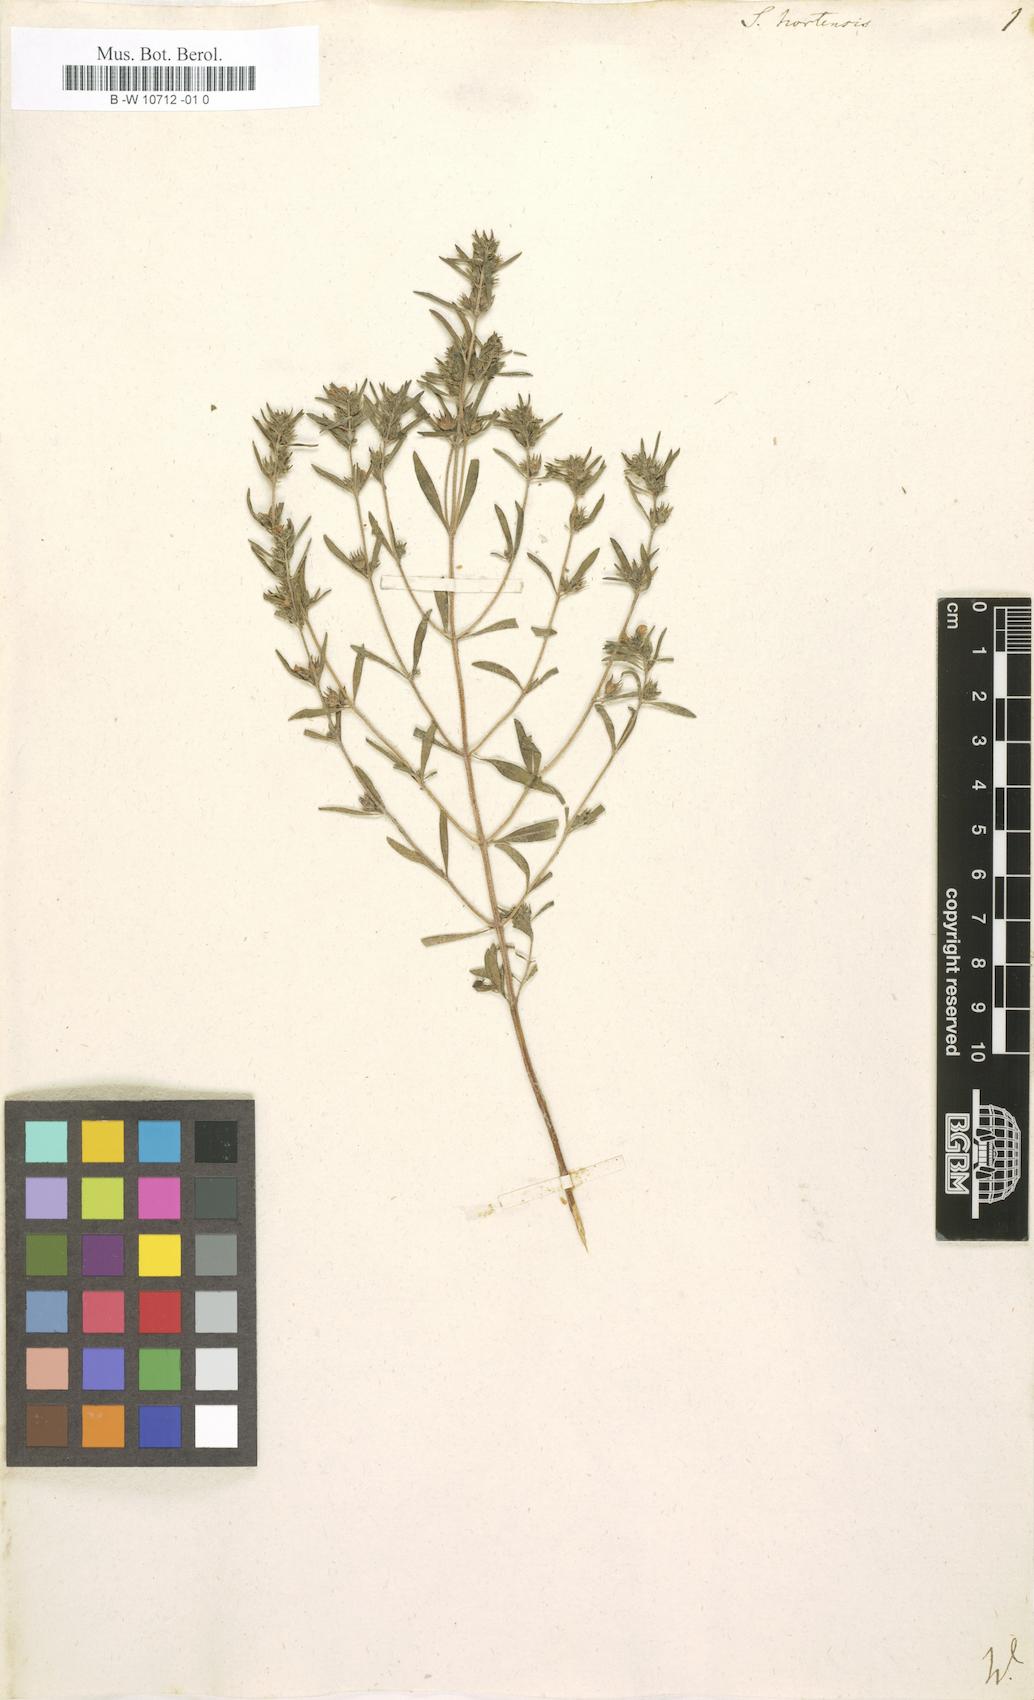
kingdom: Plantae
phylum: Tracheophyta
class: Magnoliopsida
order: Lamiales
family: Lamiaceae
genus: Satureja
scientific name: Satureja hortensis
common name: Summer savory
